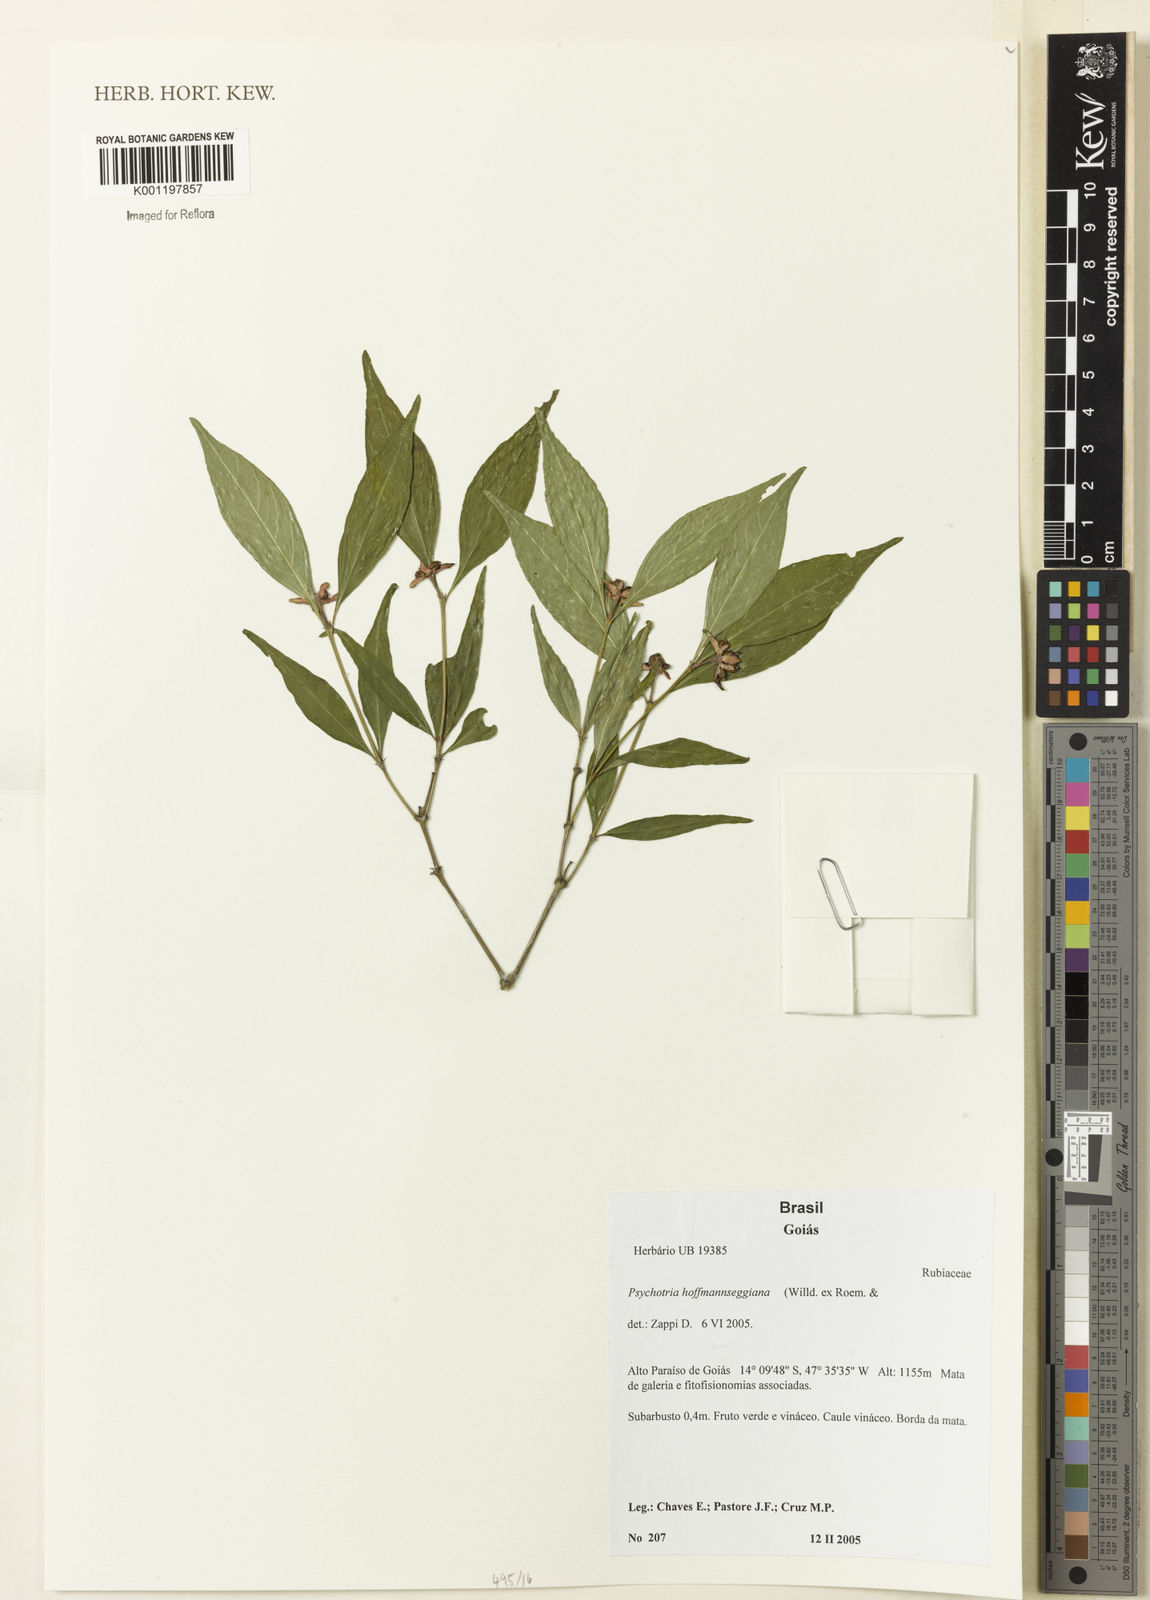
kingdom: Plantae
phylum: Tracheophyta
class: Magnoliopsida
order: Gentianales
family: Rubiaceae
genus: Psychotria
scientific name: Psychotria
